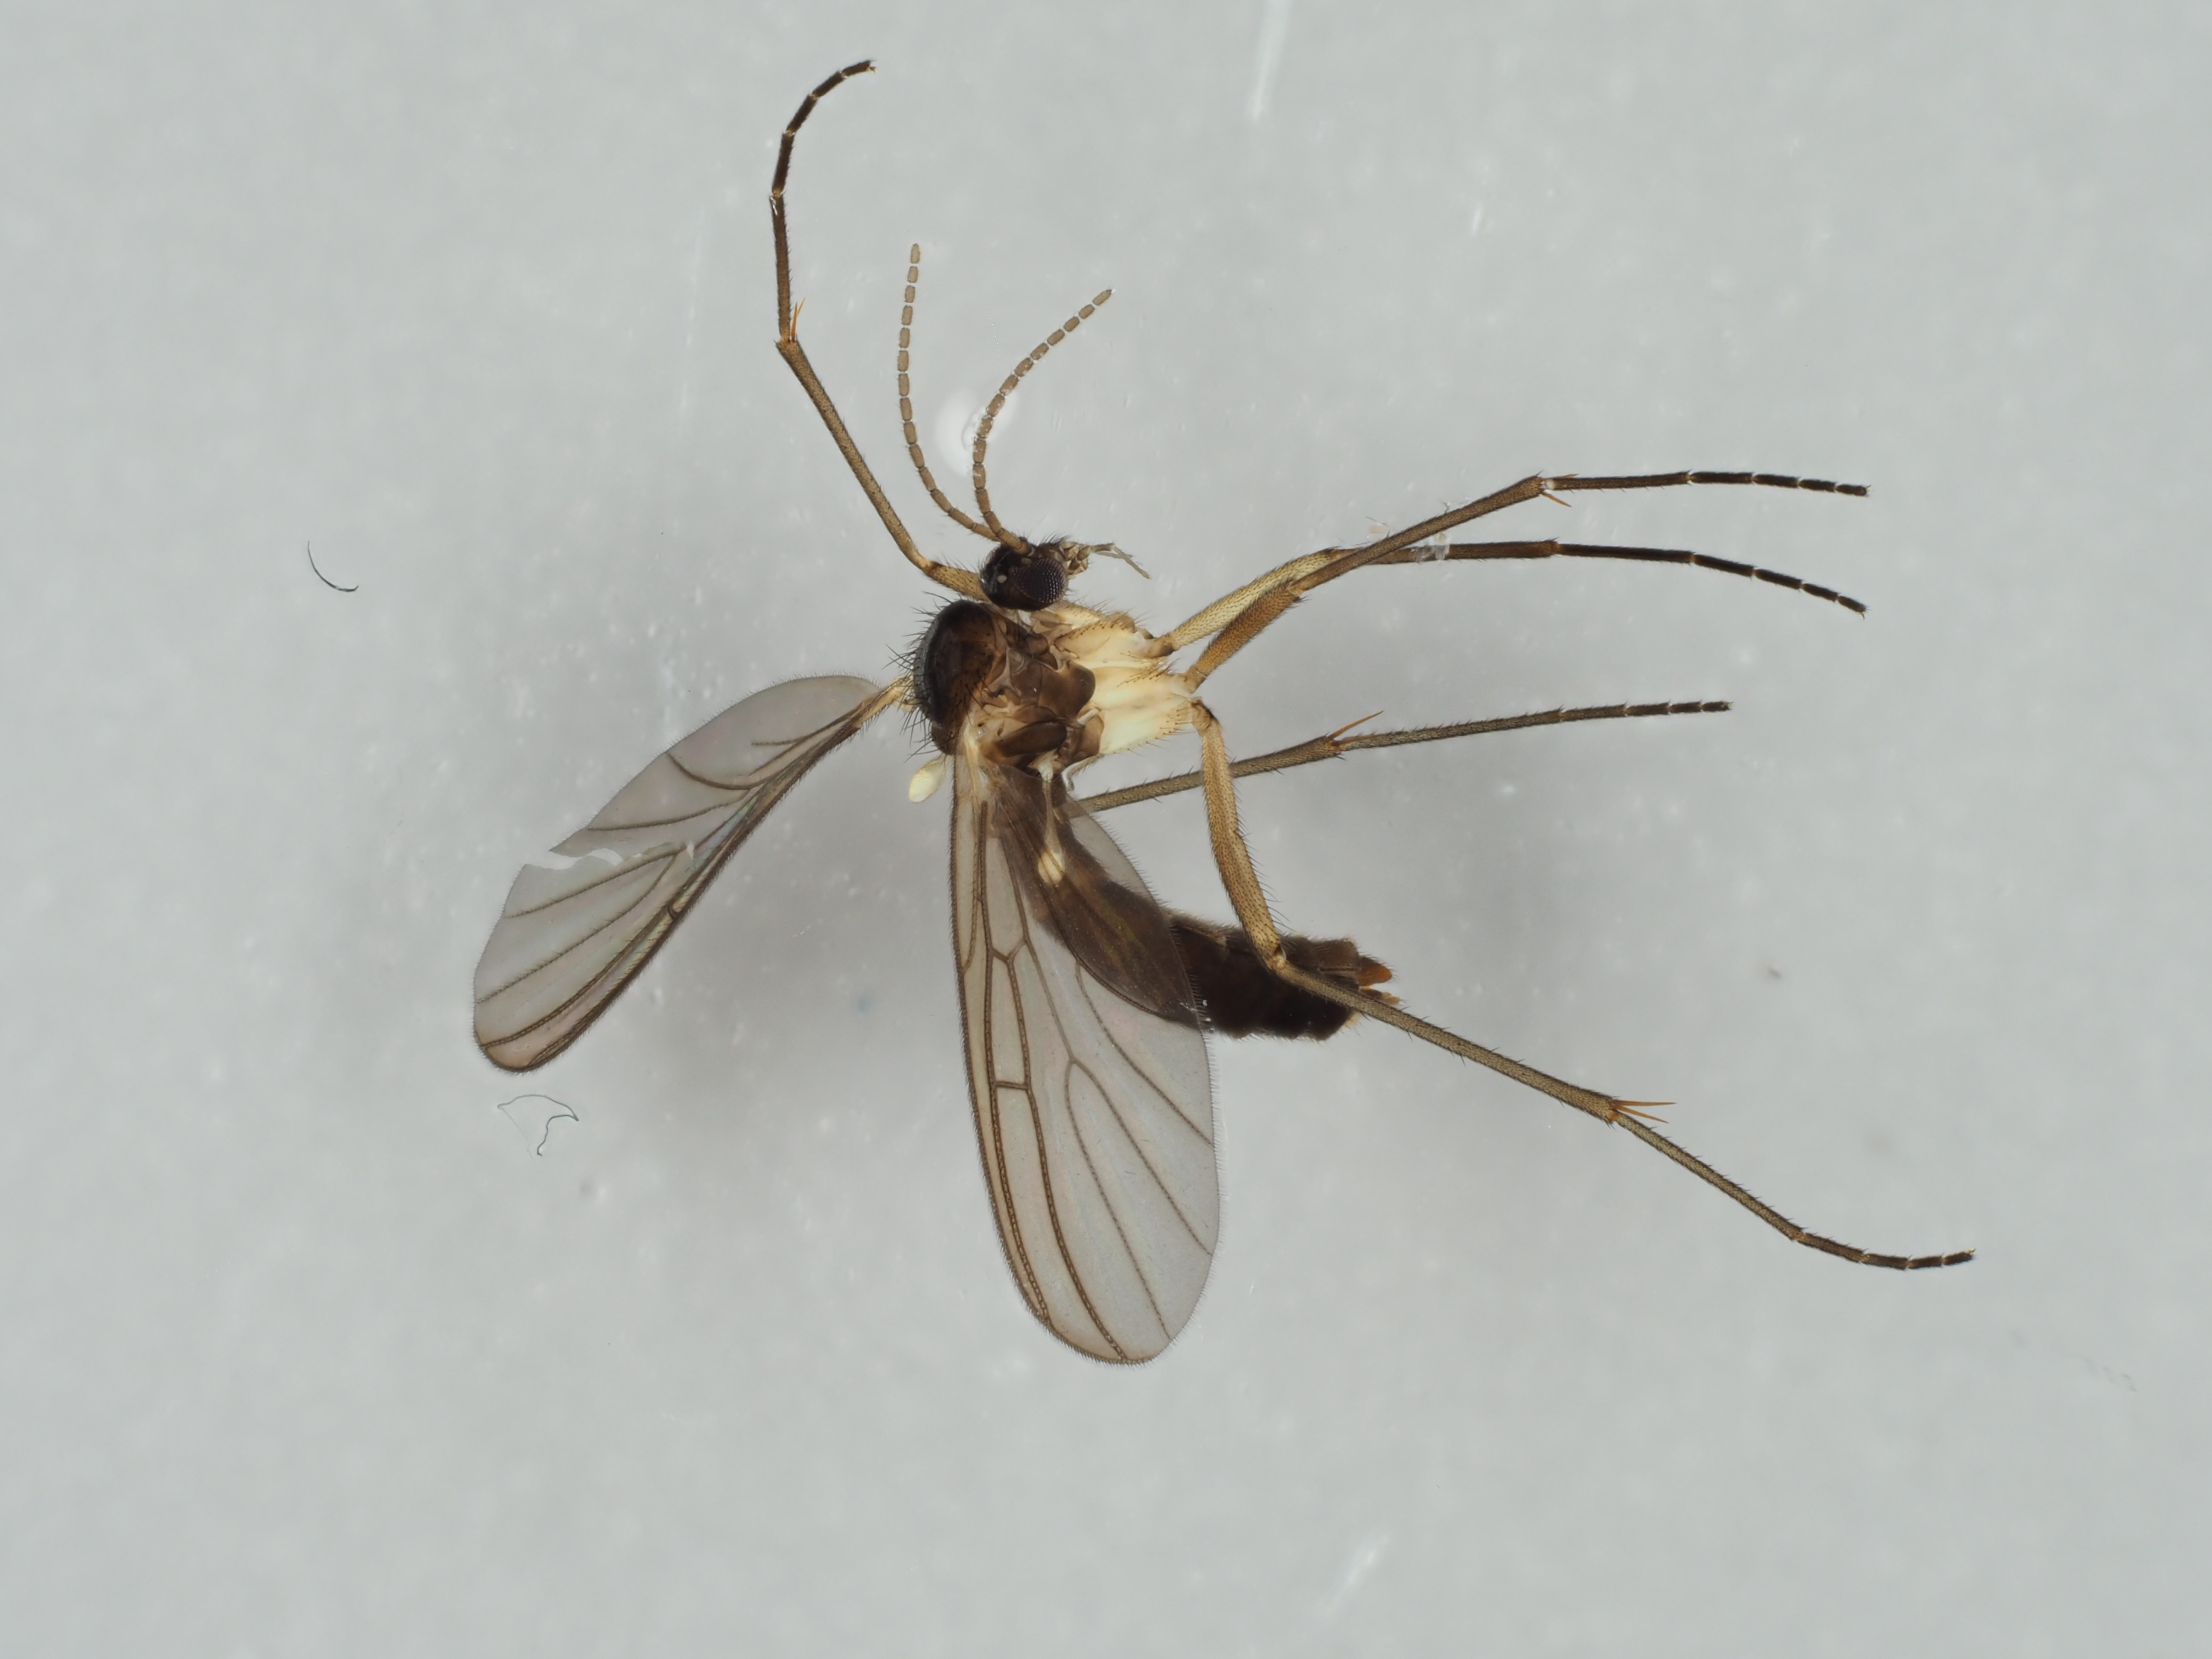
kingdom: Animalia
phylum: Arthropoda
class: Insecta
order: Diptera
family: Mycetophilidae
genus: Paratinia
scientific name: Paratinia difficilis
